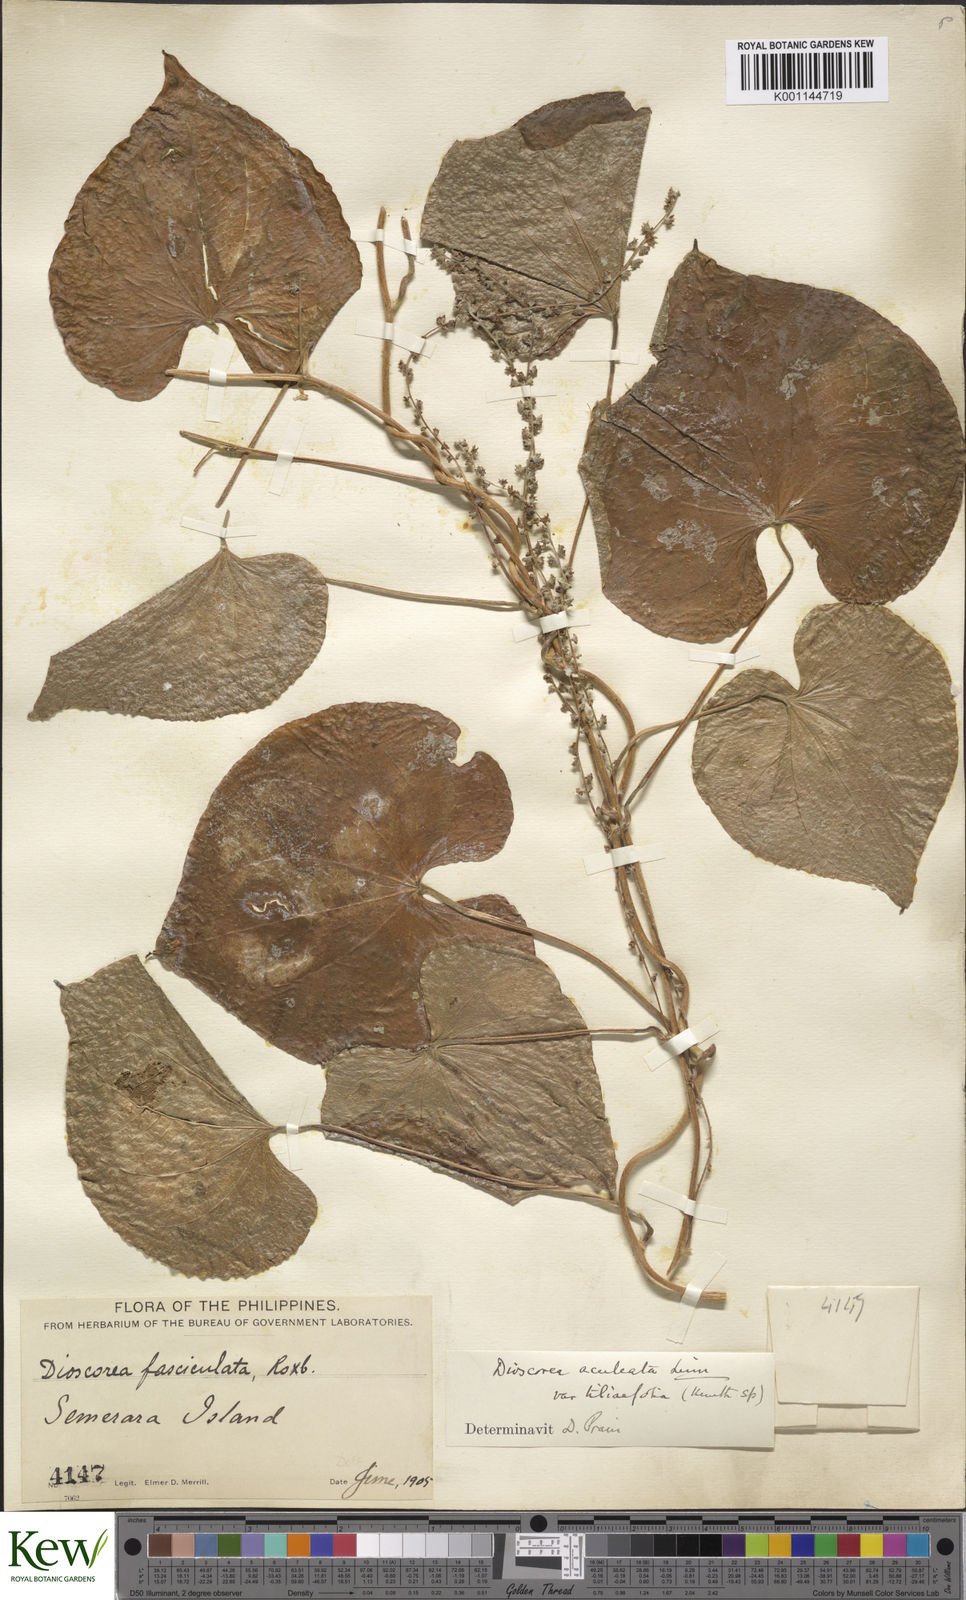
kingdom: Plantae
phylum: Tracheophyta
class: Liliopsida
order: Dioscoreales
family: Dioscoreaceae
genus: Dioscorea
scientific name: Dioscorea esculenta
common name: Chinese yam
